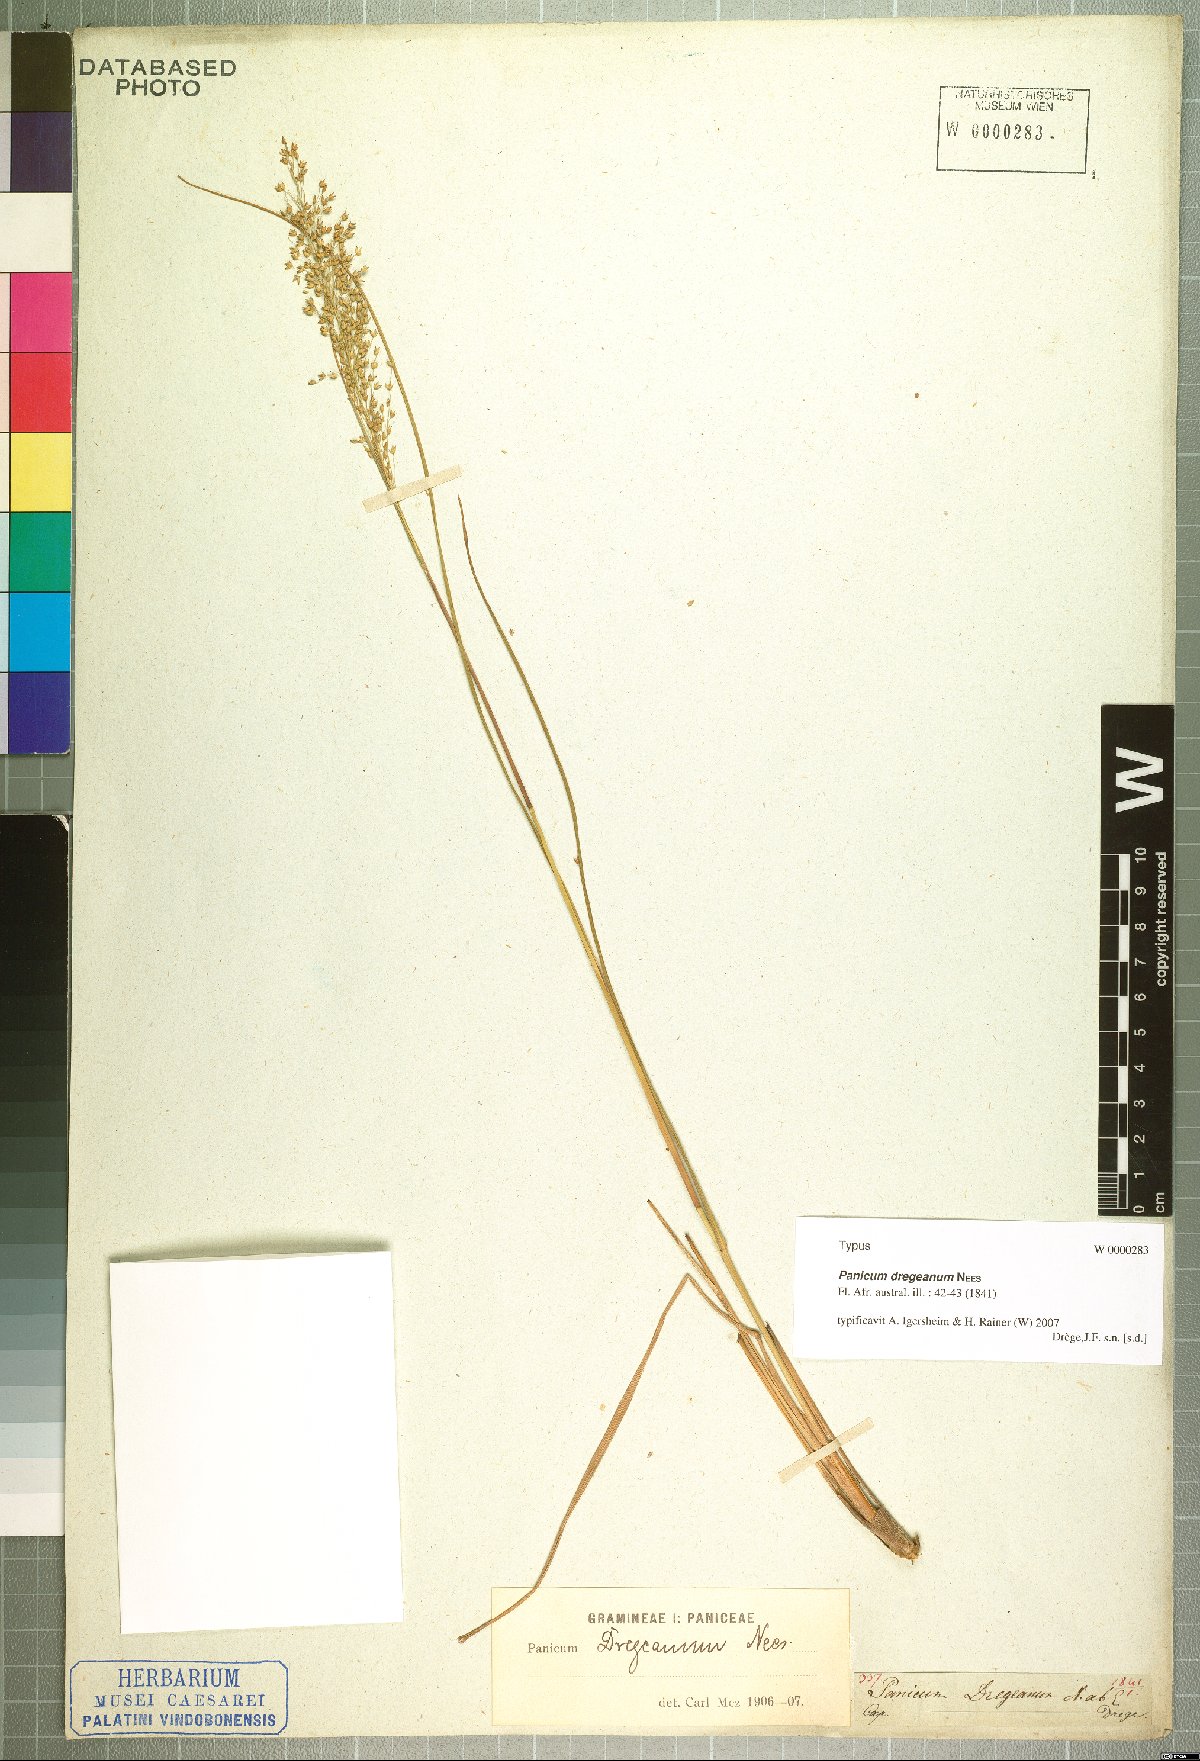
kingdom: Plantae
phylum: Tracheophyta
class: Liliopsida
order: Poales
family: Poaceae
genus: Panicum
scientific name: Panicum dregeanum
